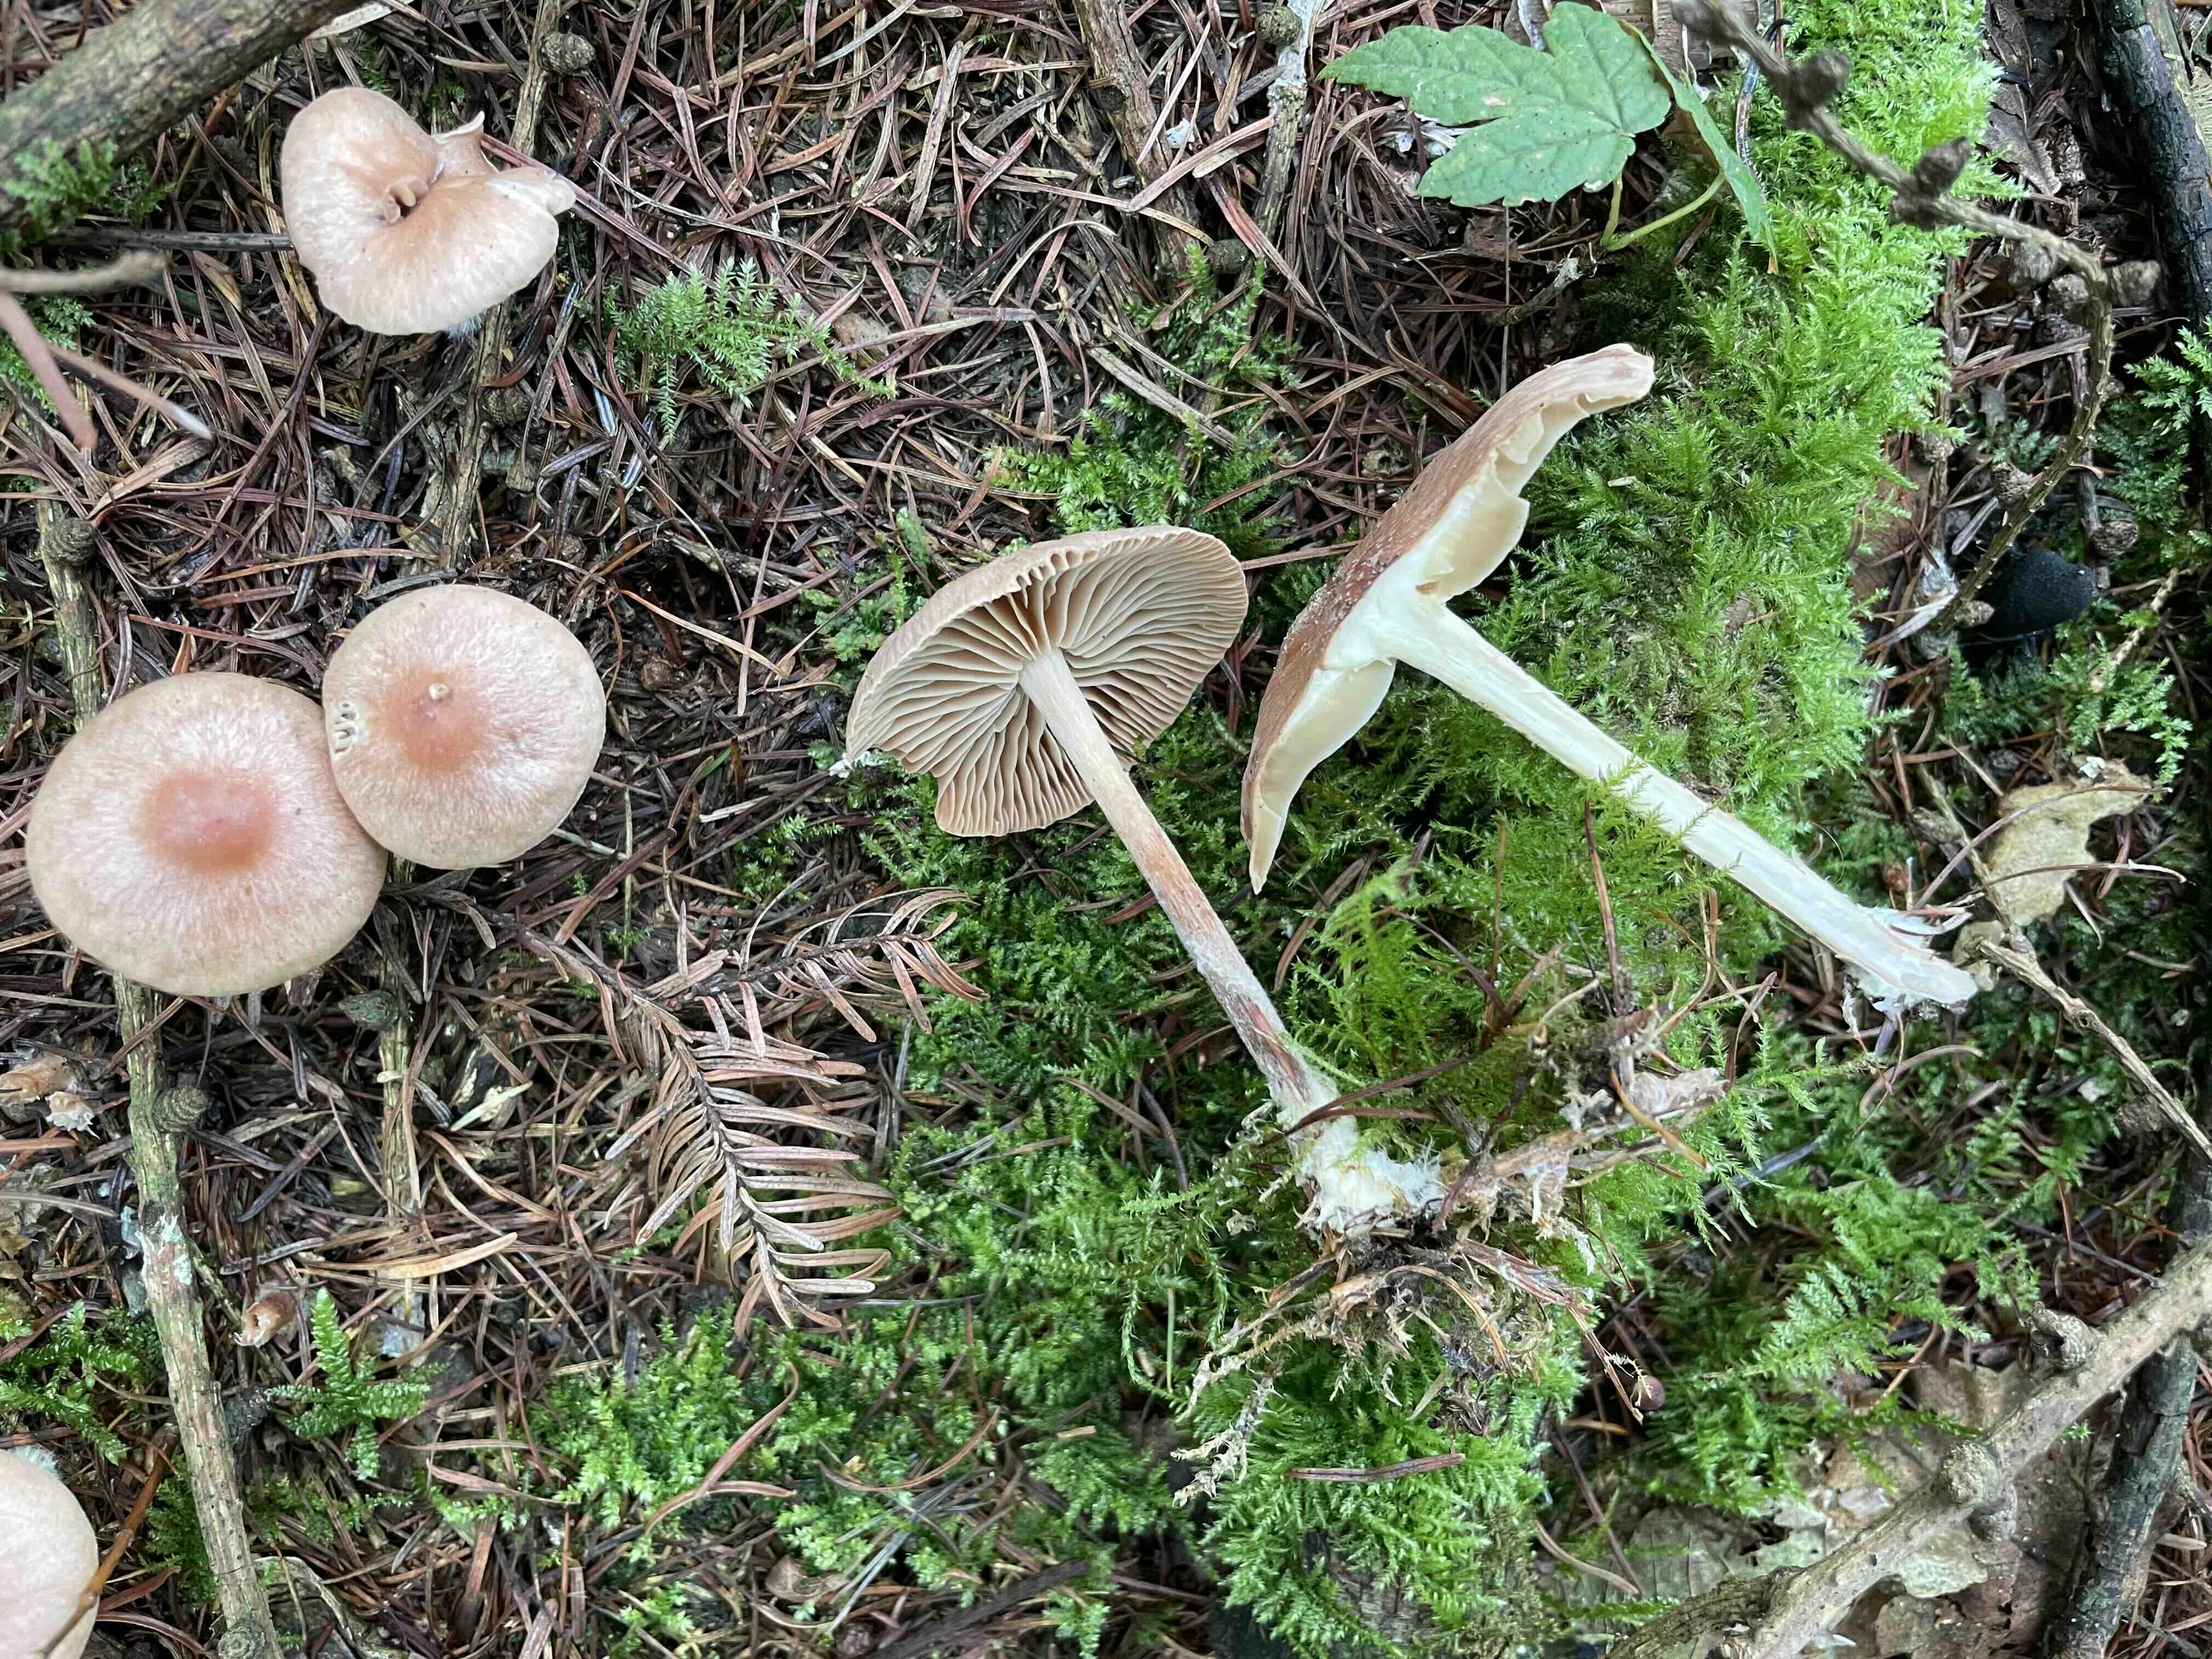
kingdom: Fungi
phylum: Basidiomycota
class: Agaricomycetes
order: Agaricales
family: Omphalotaceae
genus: Collybiopsis
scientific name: Collybiopsis peronata
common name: bestøvlet fladhat
